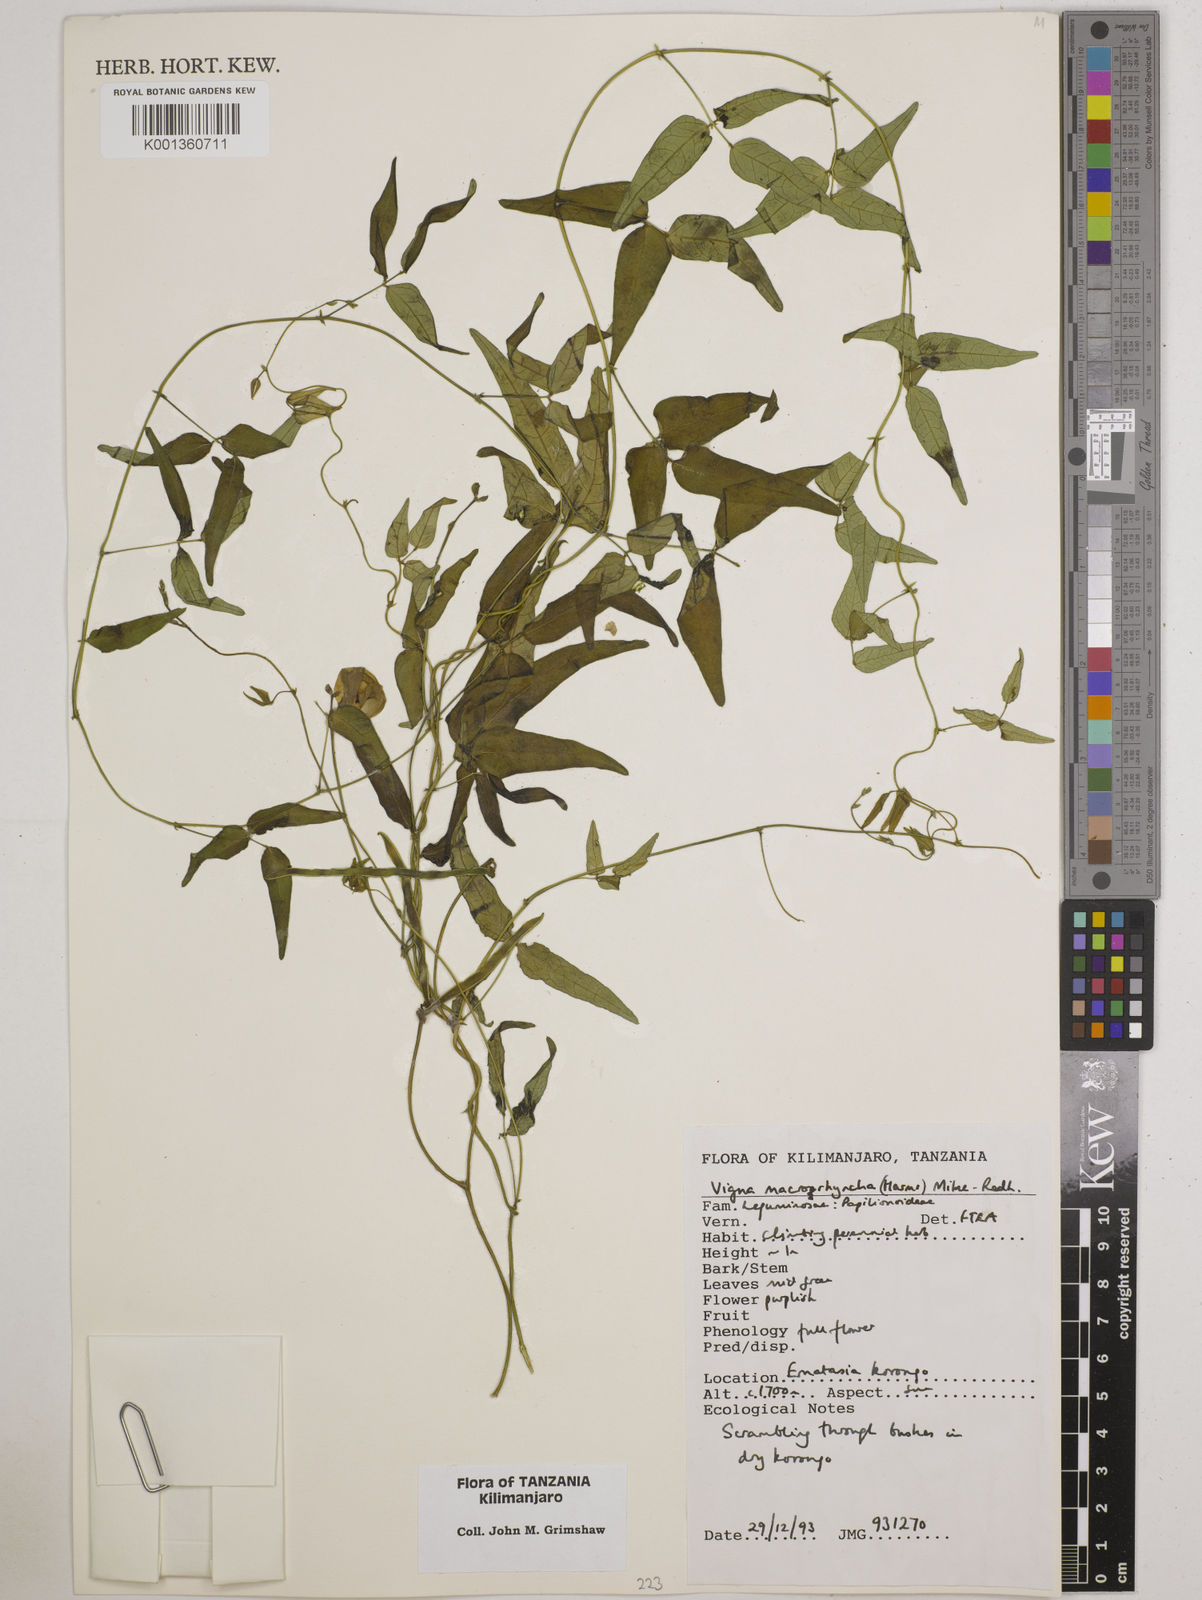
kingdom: Plantae
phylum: Tracheophyta
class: Magnoliopsida
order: Fabales
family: Fabaceae
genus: Wajira
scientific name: Wajira grahamiana
